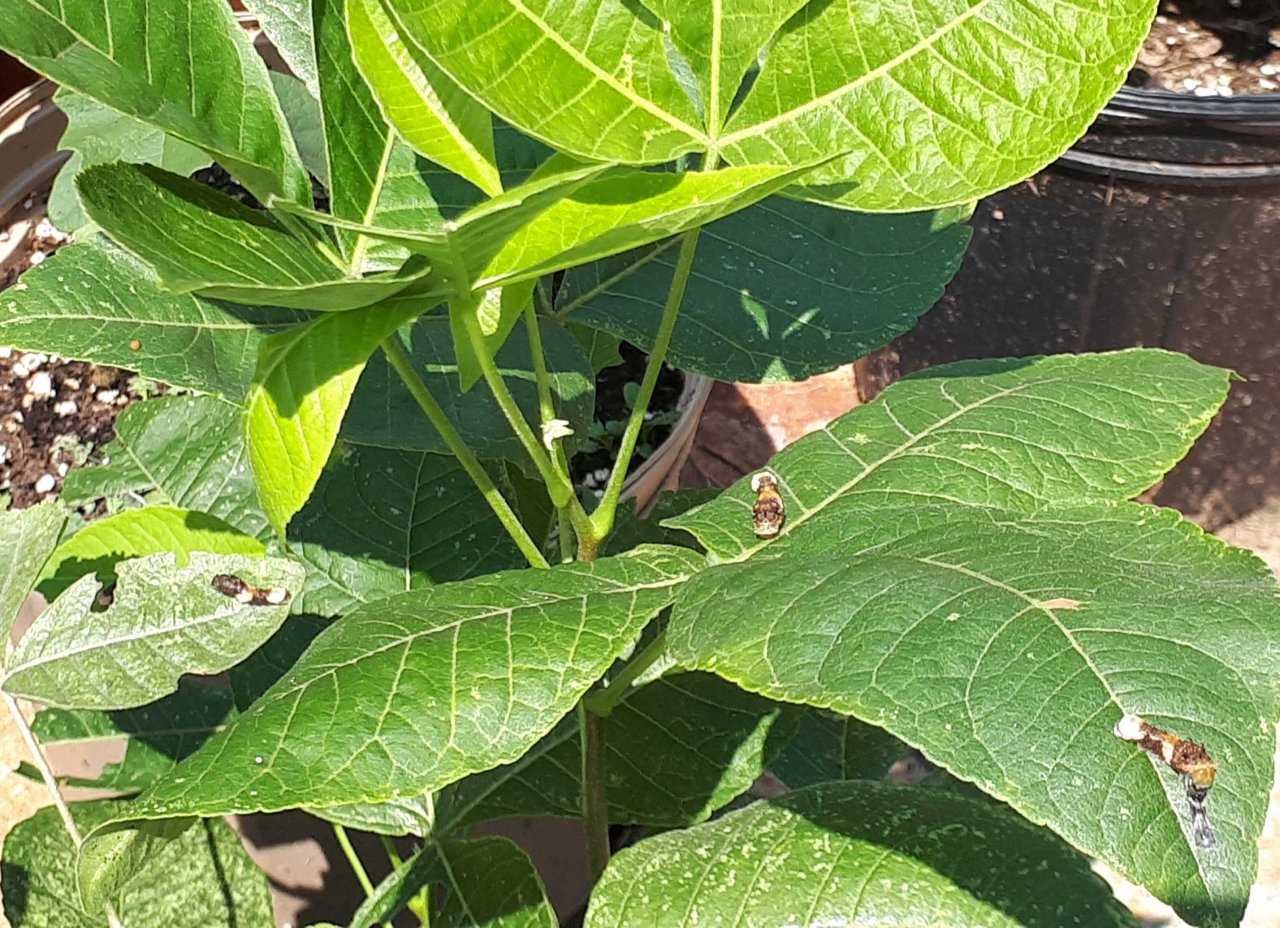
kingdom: Animalia
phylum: Arthropoda
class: Insecta
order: Lepidoptera
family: Papilionidae
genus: Papilio
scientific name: Papilio cresphontes
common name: Eastern Giant Swallowtail
